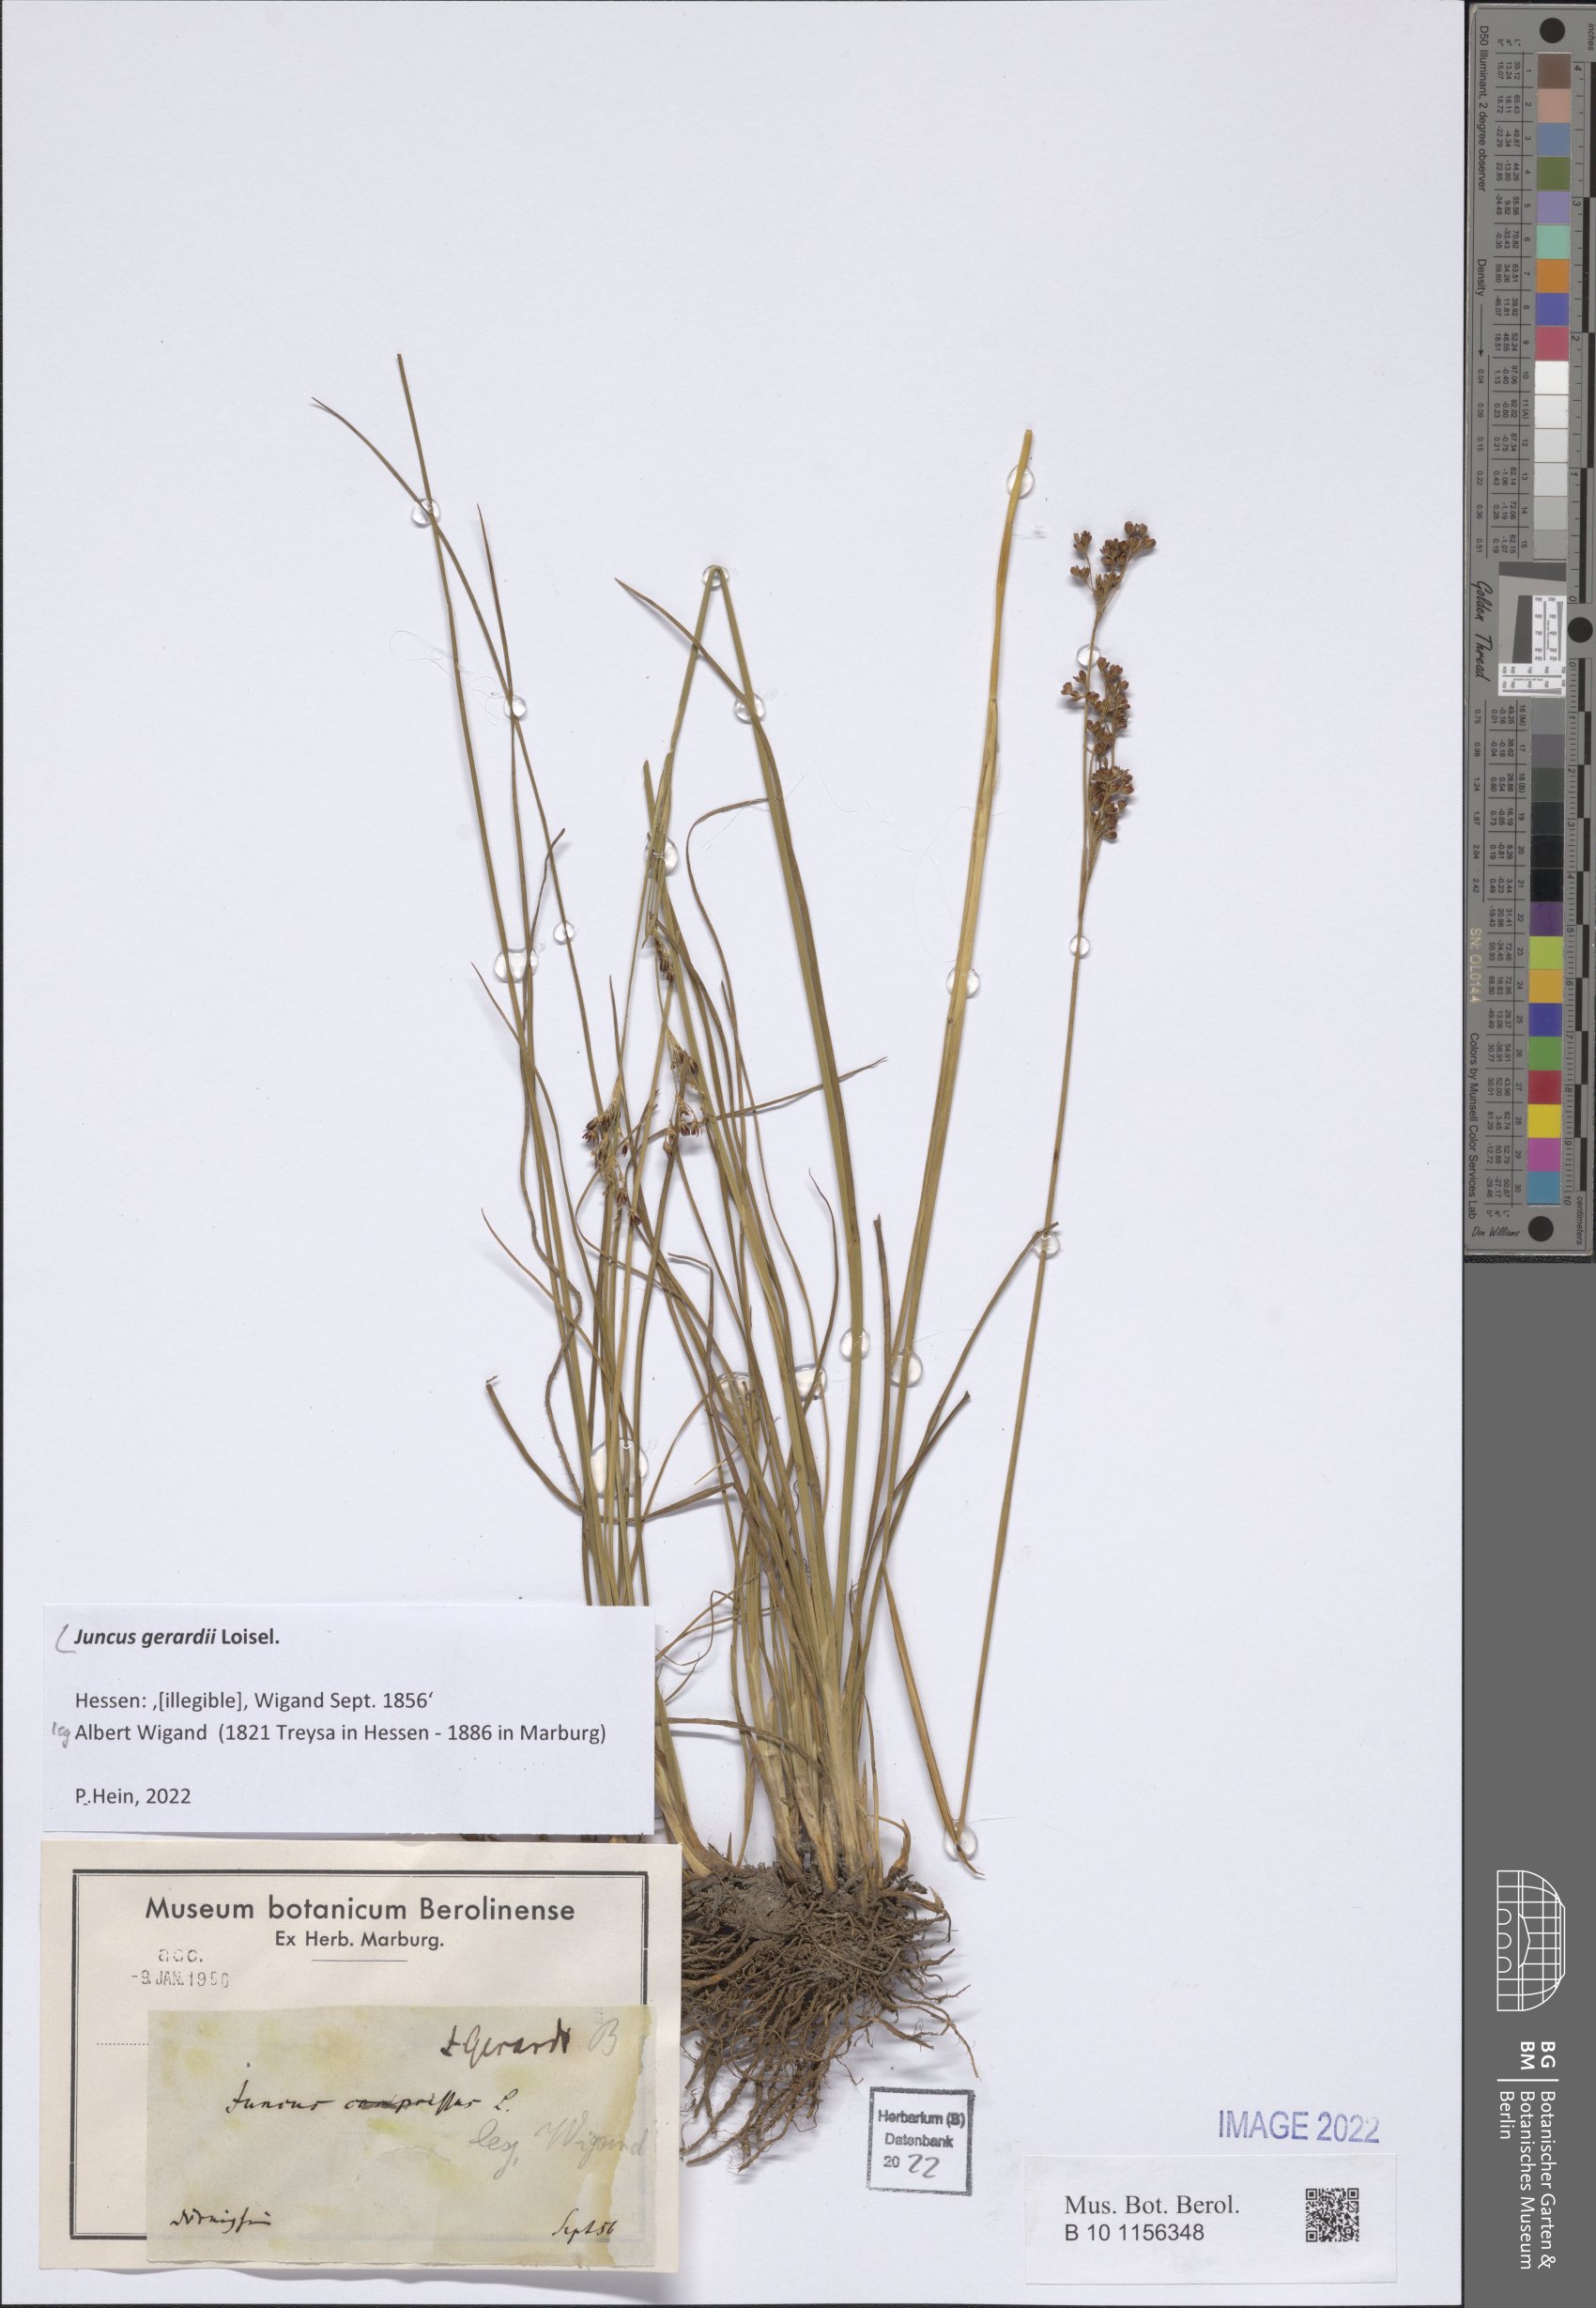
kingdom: Plantae
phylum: Tracheophyta
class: Liliopsida
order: Poales
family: Juncaceae
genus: Juncus
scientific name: Juncus gerardi
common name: Saltmarsh rush
